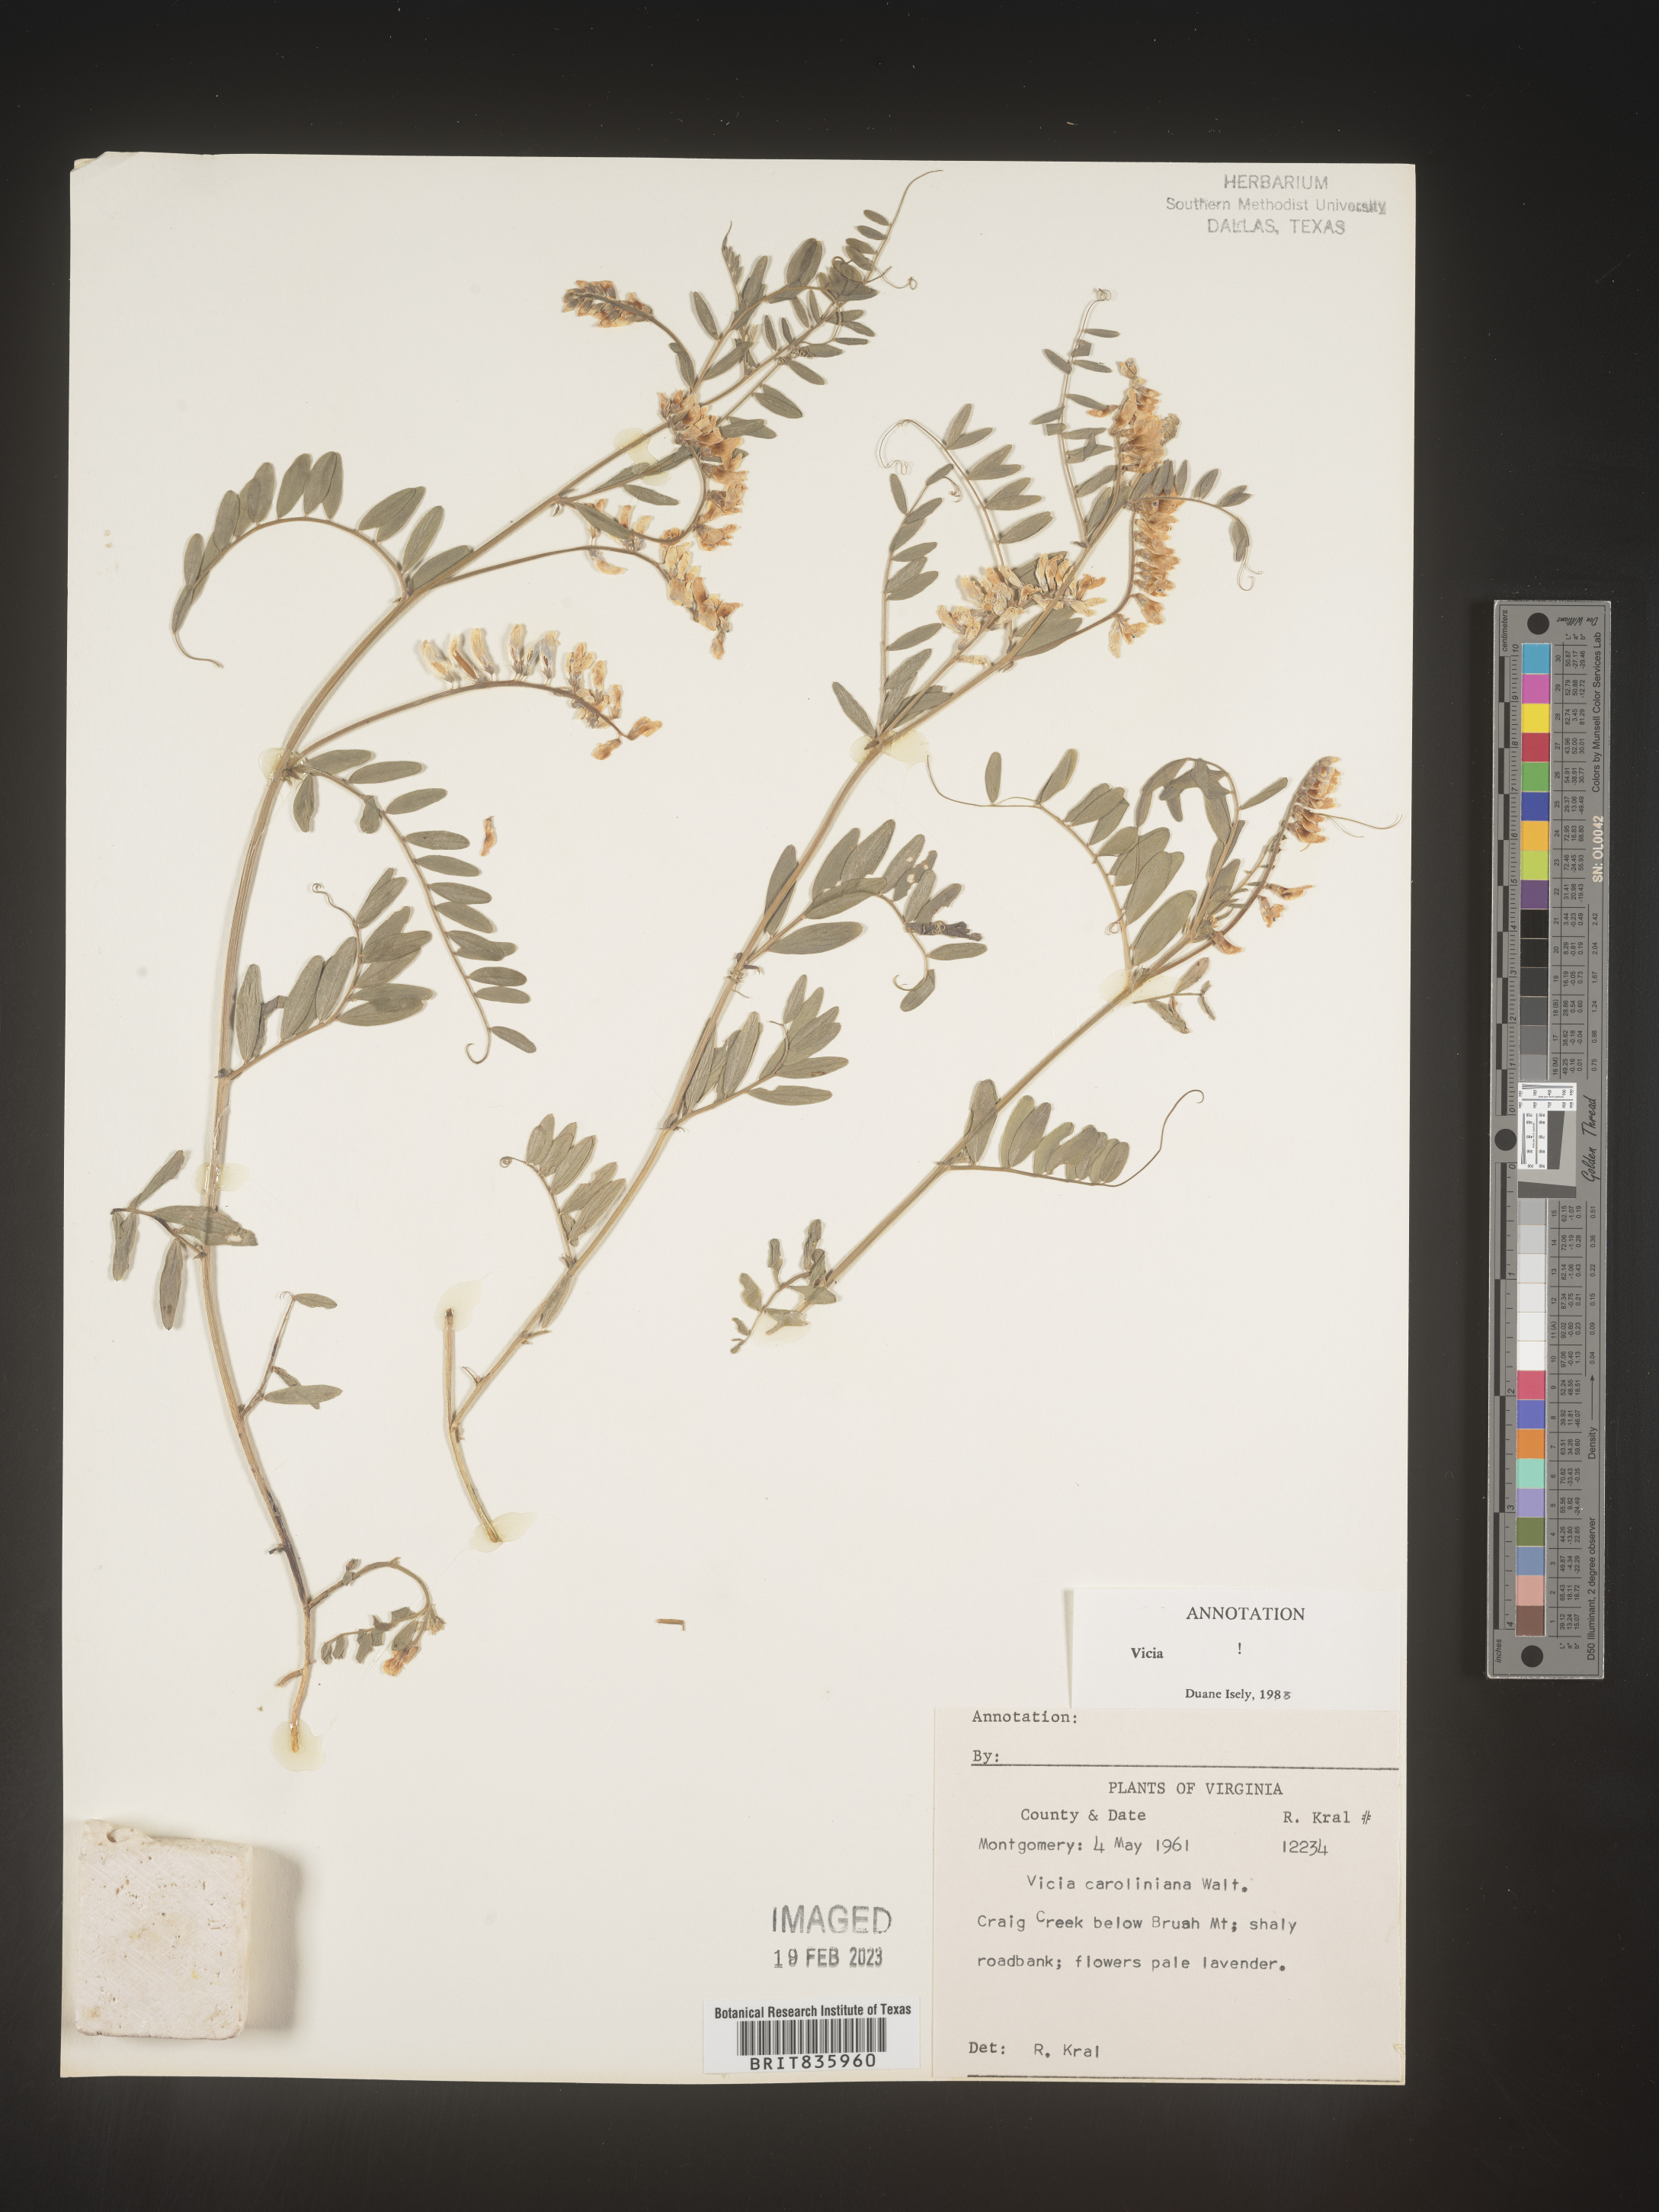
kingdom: Plantae
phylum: Tracheophyta
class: Magnoliopsida
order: Fabales
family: Fabaceae
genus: Vicia
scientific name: Vicia caroliniana
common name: Carolina vetch
